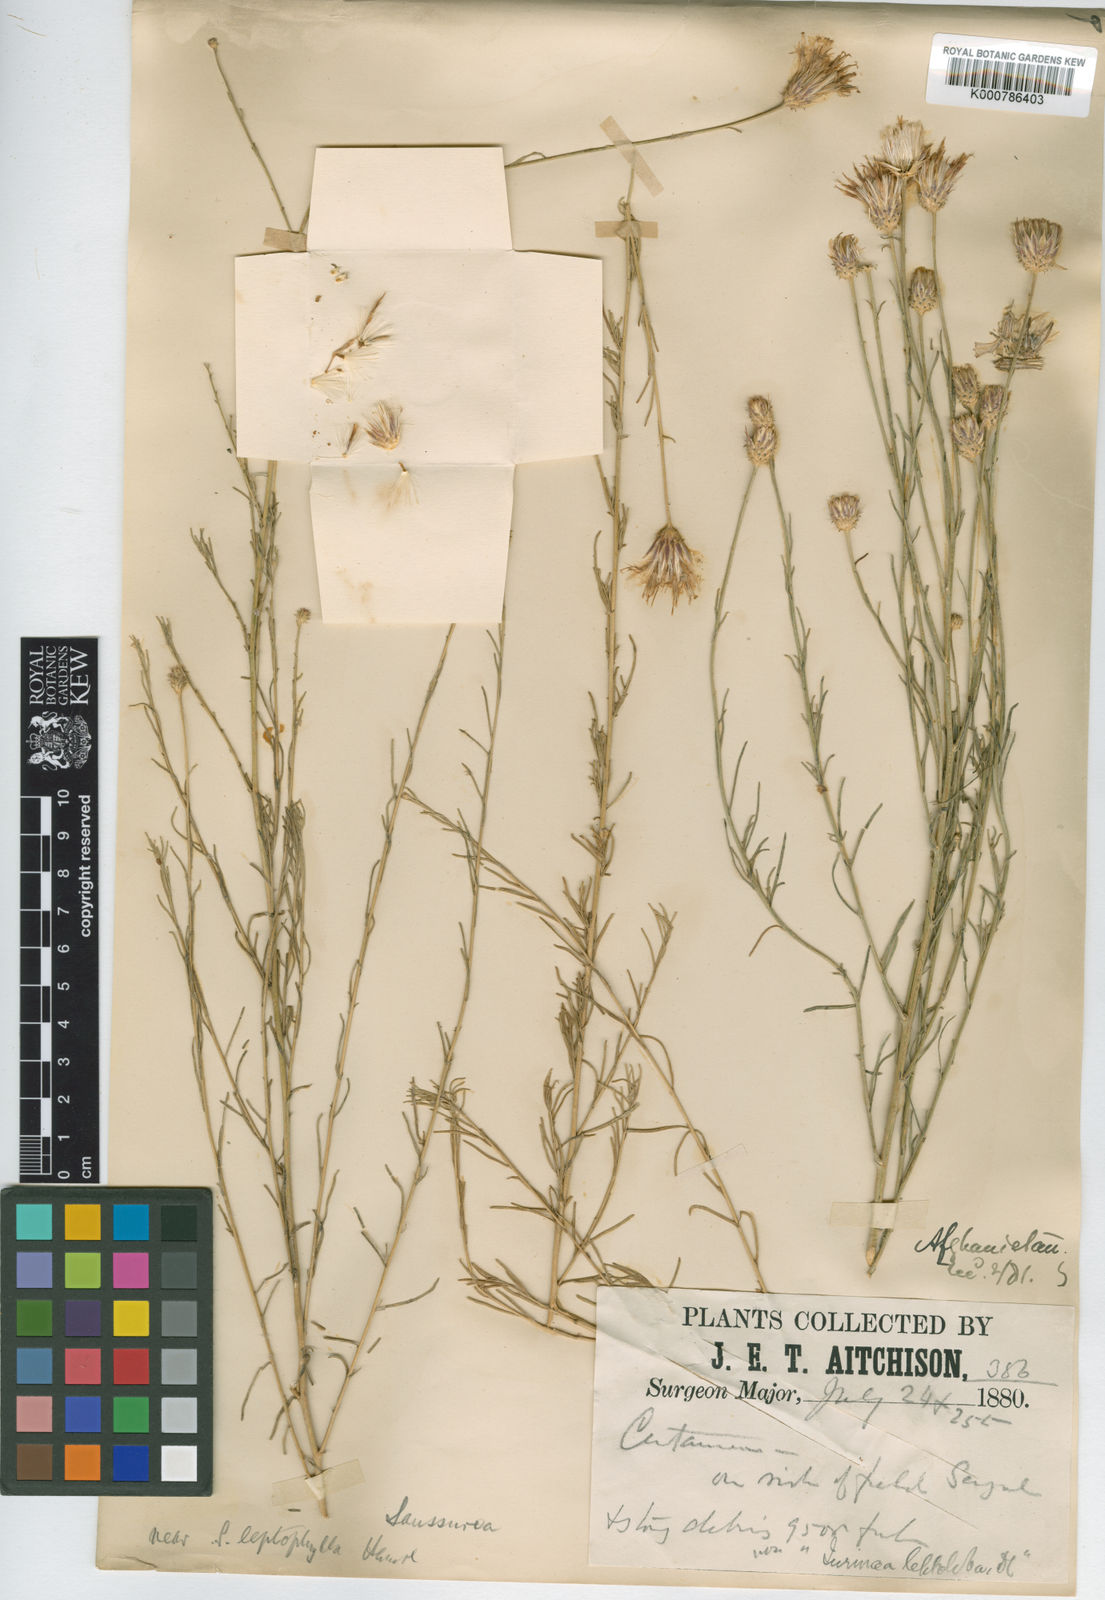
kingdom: Plantae
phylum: Tracheophyta
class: Magnoliopsida
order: Asterales
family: Asteraceae
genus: Jurinea
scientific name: Jurinea leptophylla
